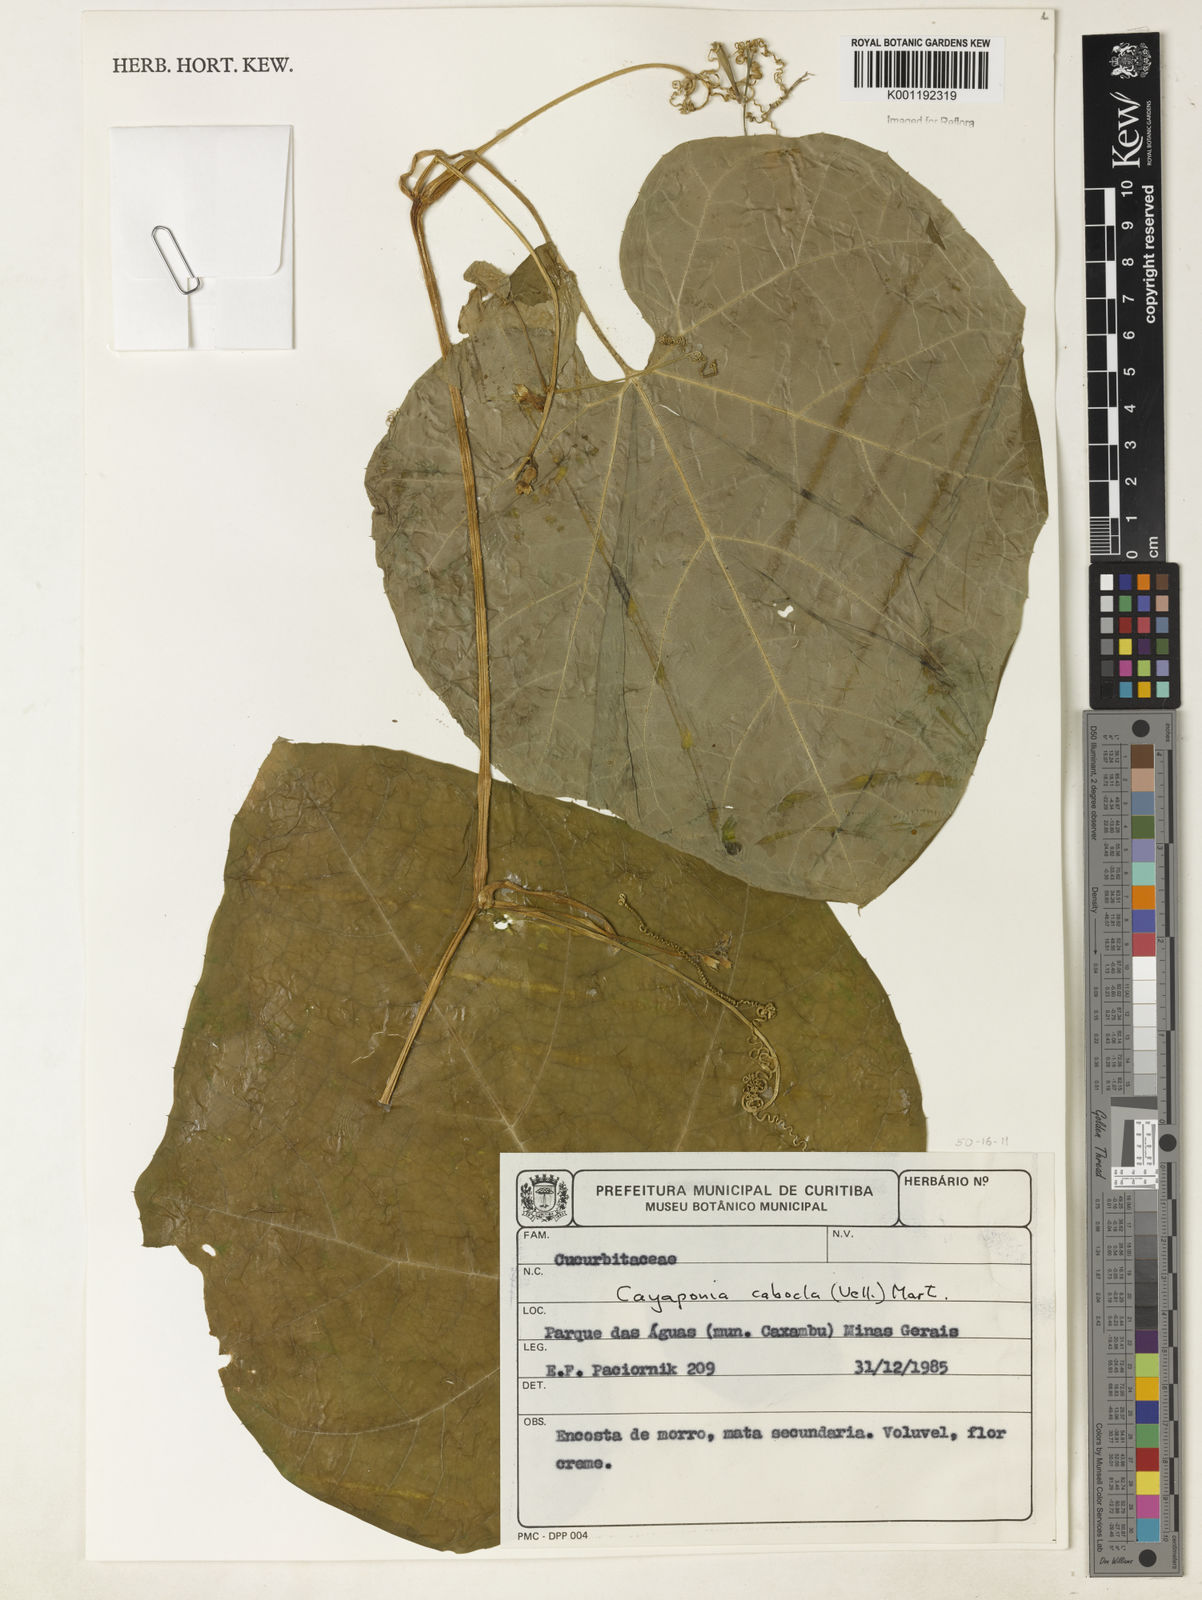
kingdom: Plantae
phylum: Tracheophyta
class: Magnoliopsida
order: Cucurbitales
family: Cucurbitaceae
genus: Cayaponia
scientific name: Cayaponia cabocla
